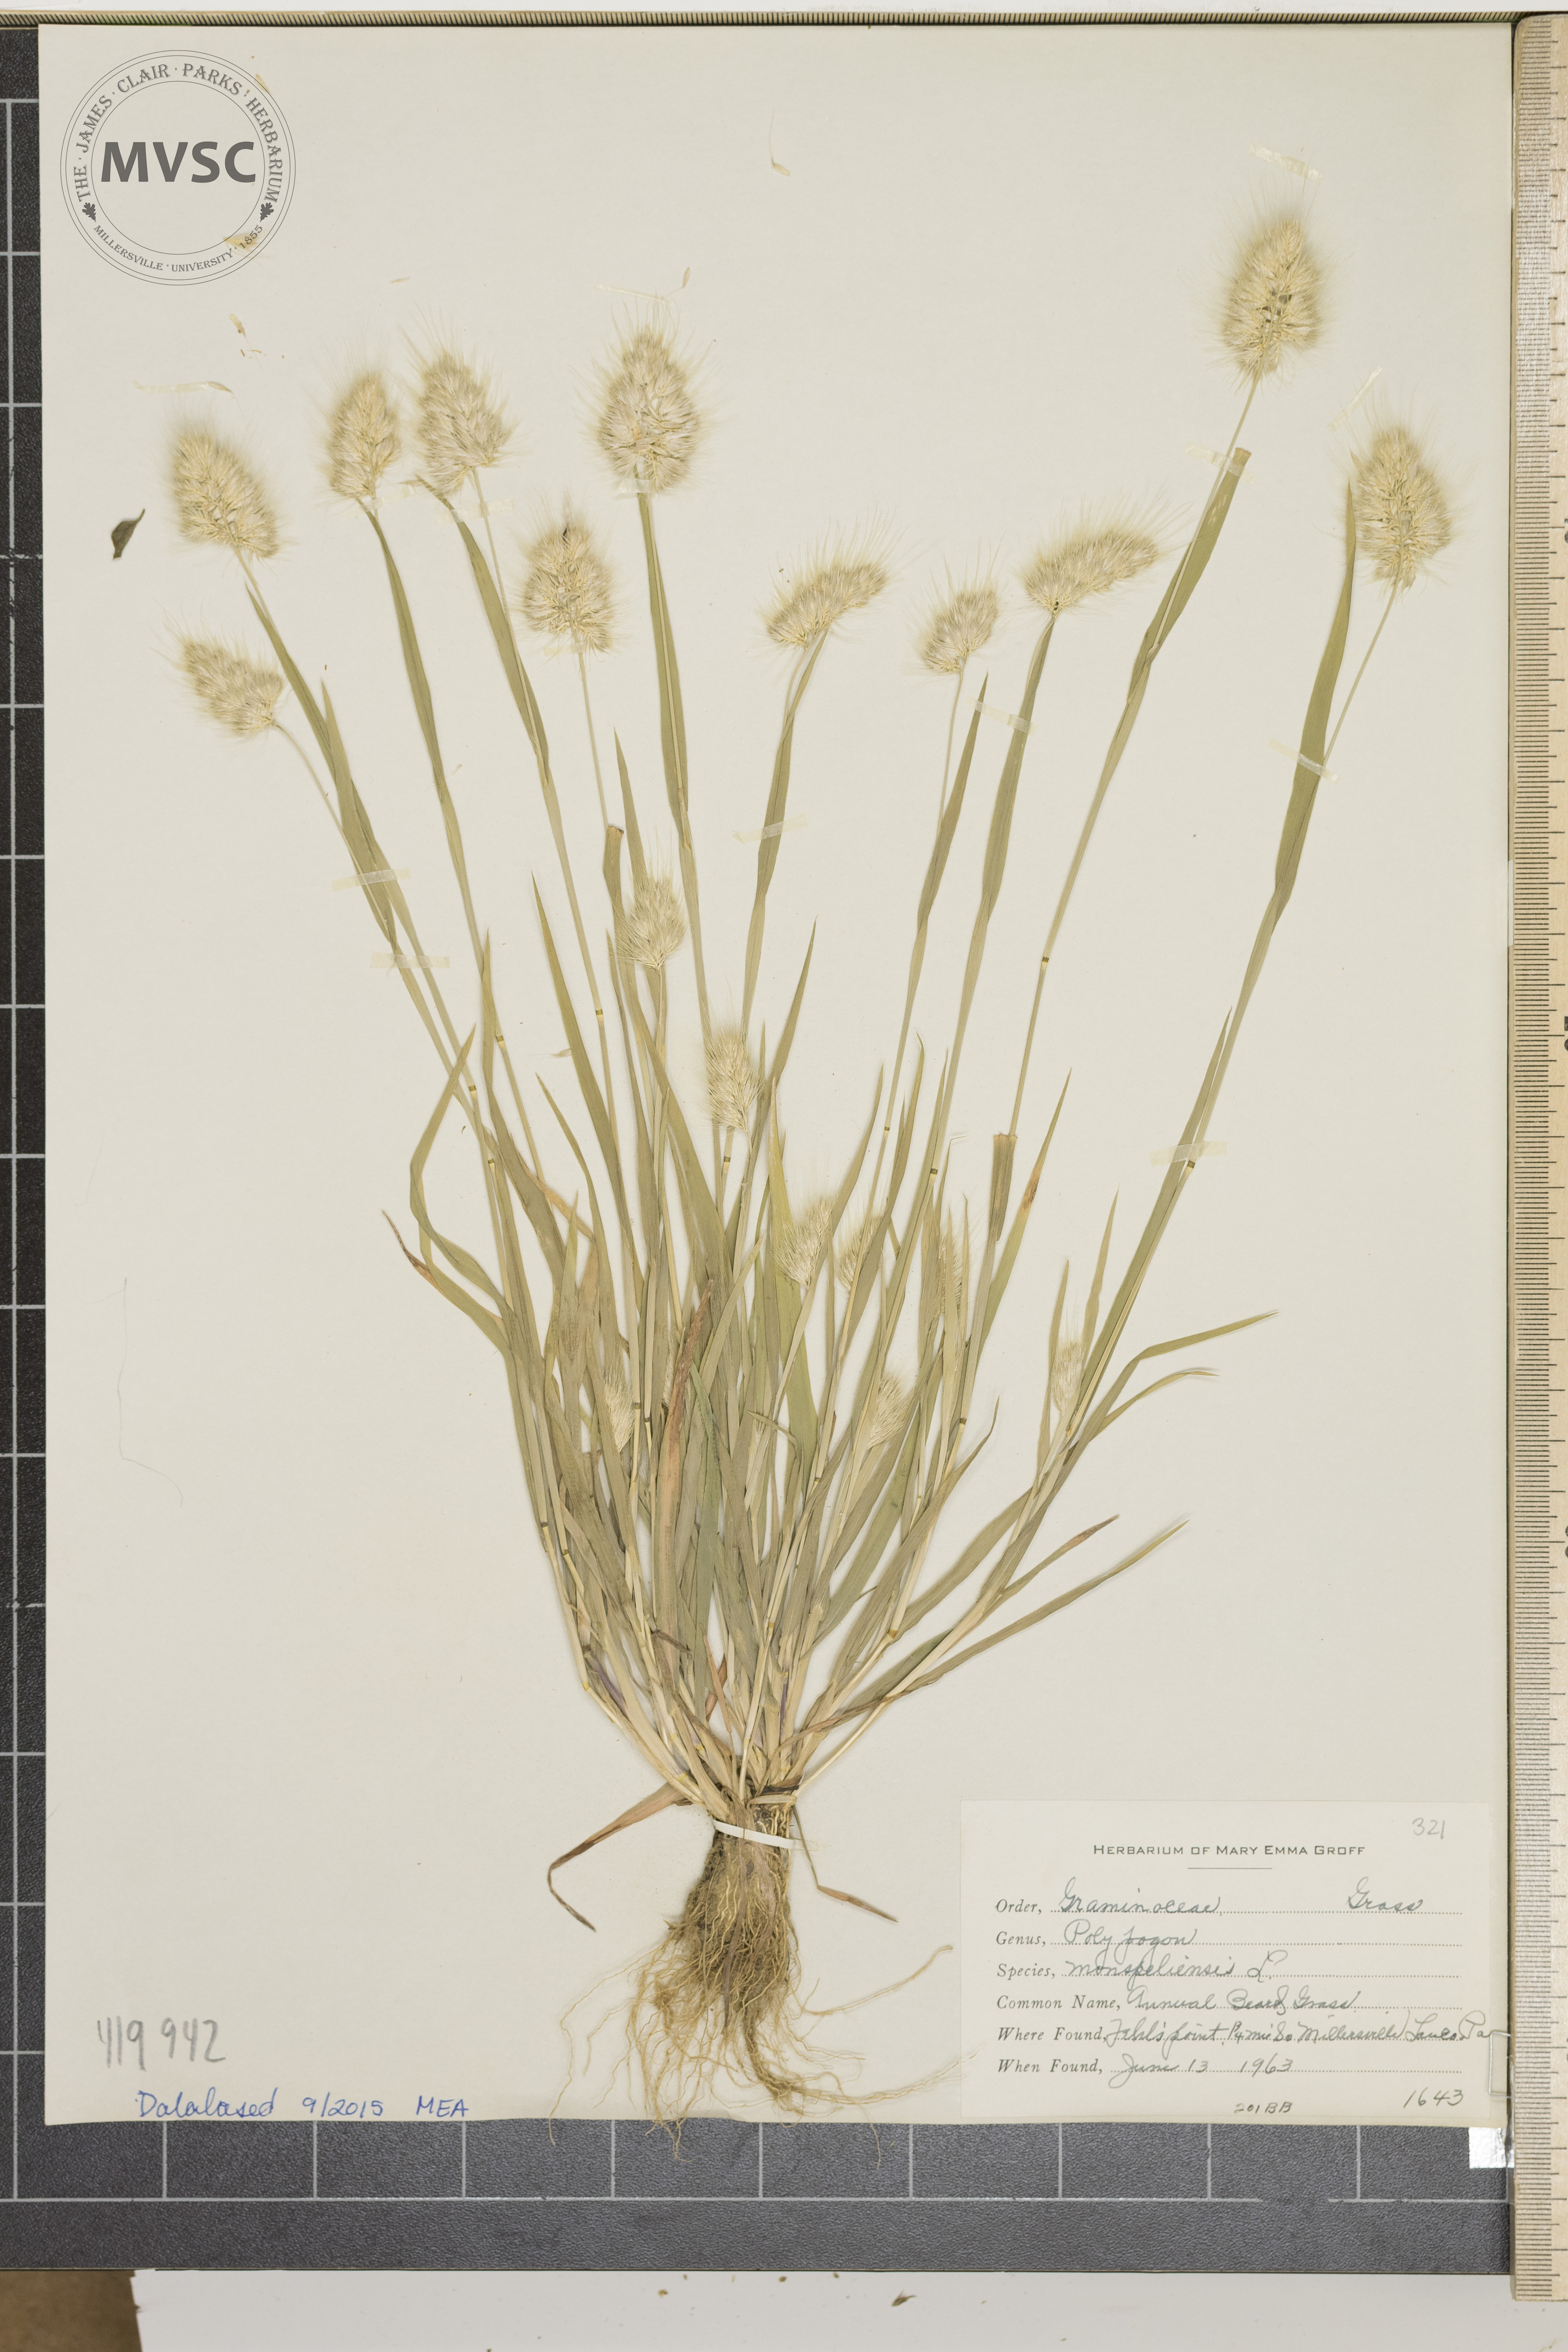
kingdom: Plantae
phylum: Tracheophyta
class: Liliopsida
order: Poales
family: Poaceae
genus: Cynosurus
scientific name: Cynosurus echinatus
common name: Rough dog's-tail
